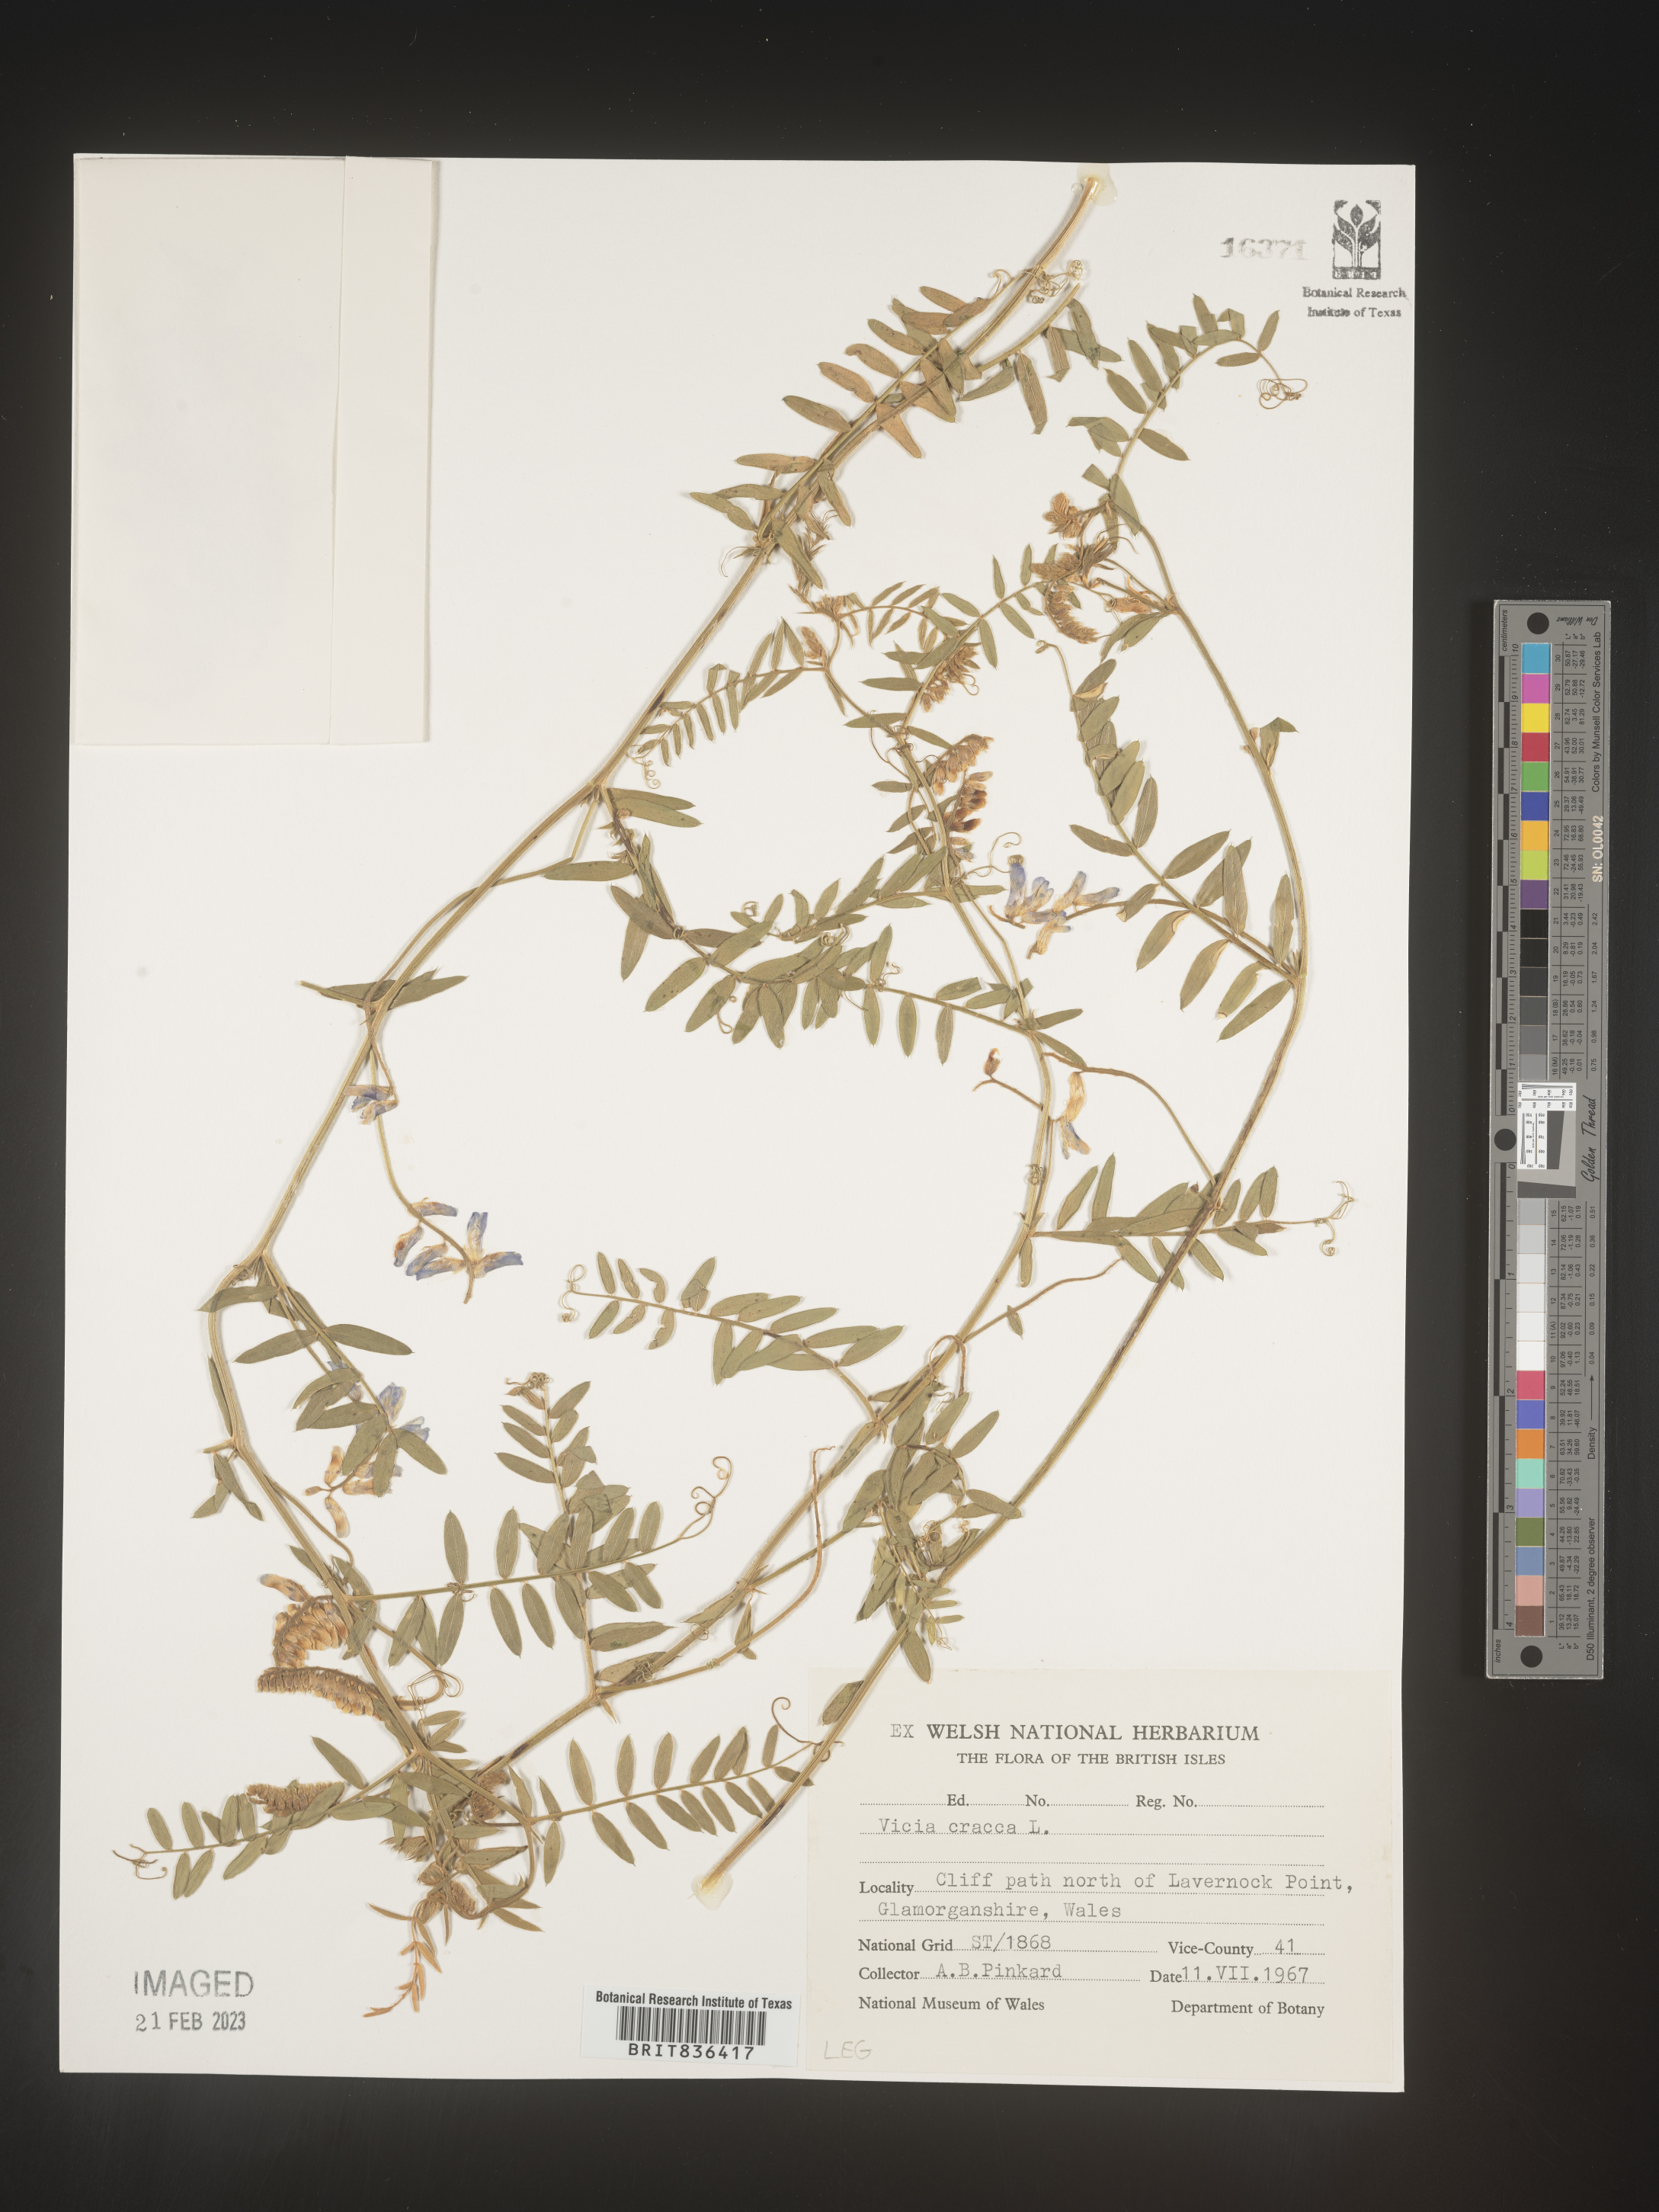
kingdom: Plantae
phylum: Tracheophyta
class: Magnoliopsida
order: Fabales
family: Fabaceae
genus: Vicia
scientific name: Vicia
